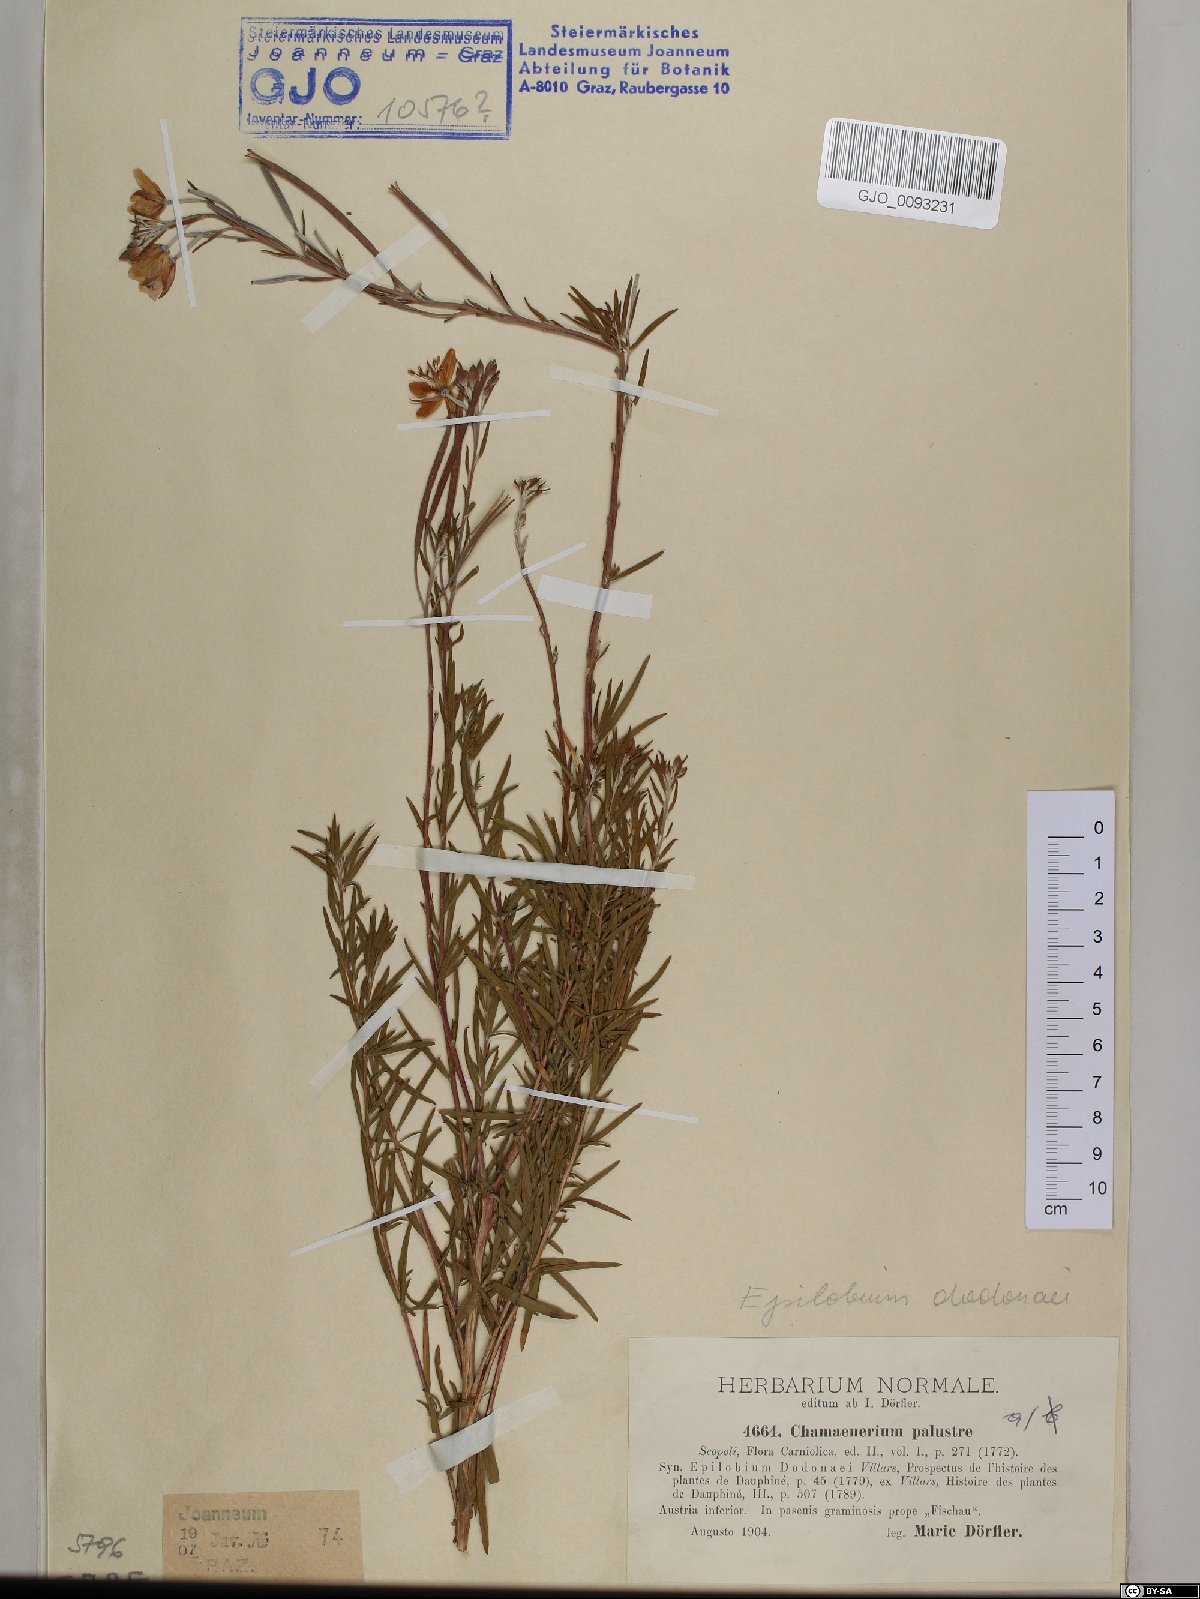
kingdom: Plantae
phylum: Tracheophyta
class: Magnoliopsida
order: Myrtales
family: Onagraceae
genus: Chamaenerion
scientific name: Chamaenerion dodonaei
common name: Rosemary-leaved willowherb
